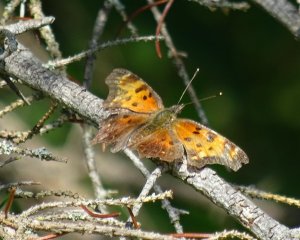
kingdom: Animalia
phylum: Arthropoda
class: Insecta
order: Lepidoptera
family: Nymphalidae
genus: Polygonia
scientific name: Polygonia progne
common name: Gray Comma
